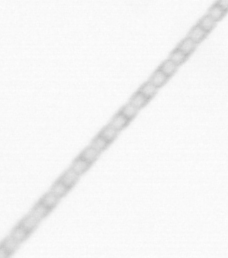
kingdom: Chromista
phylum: Ochrophyta
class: Bacillariophyceae
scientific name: Bacillariophyceae
